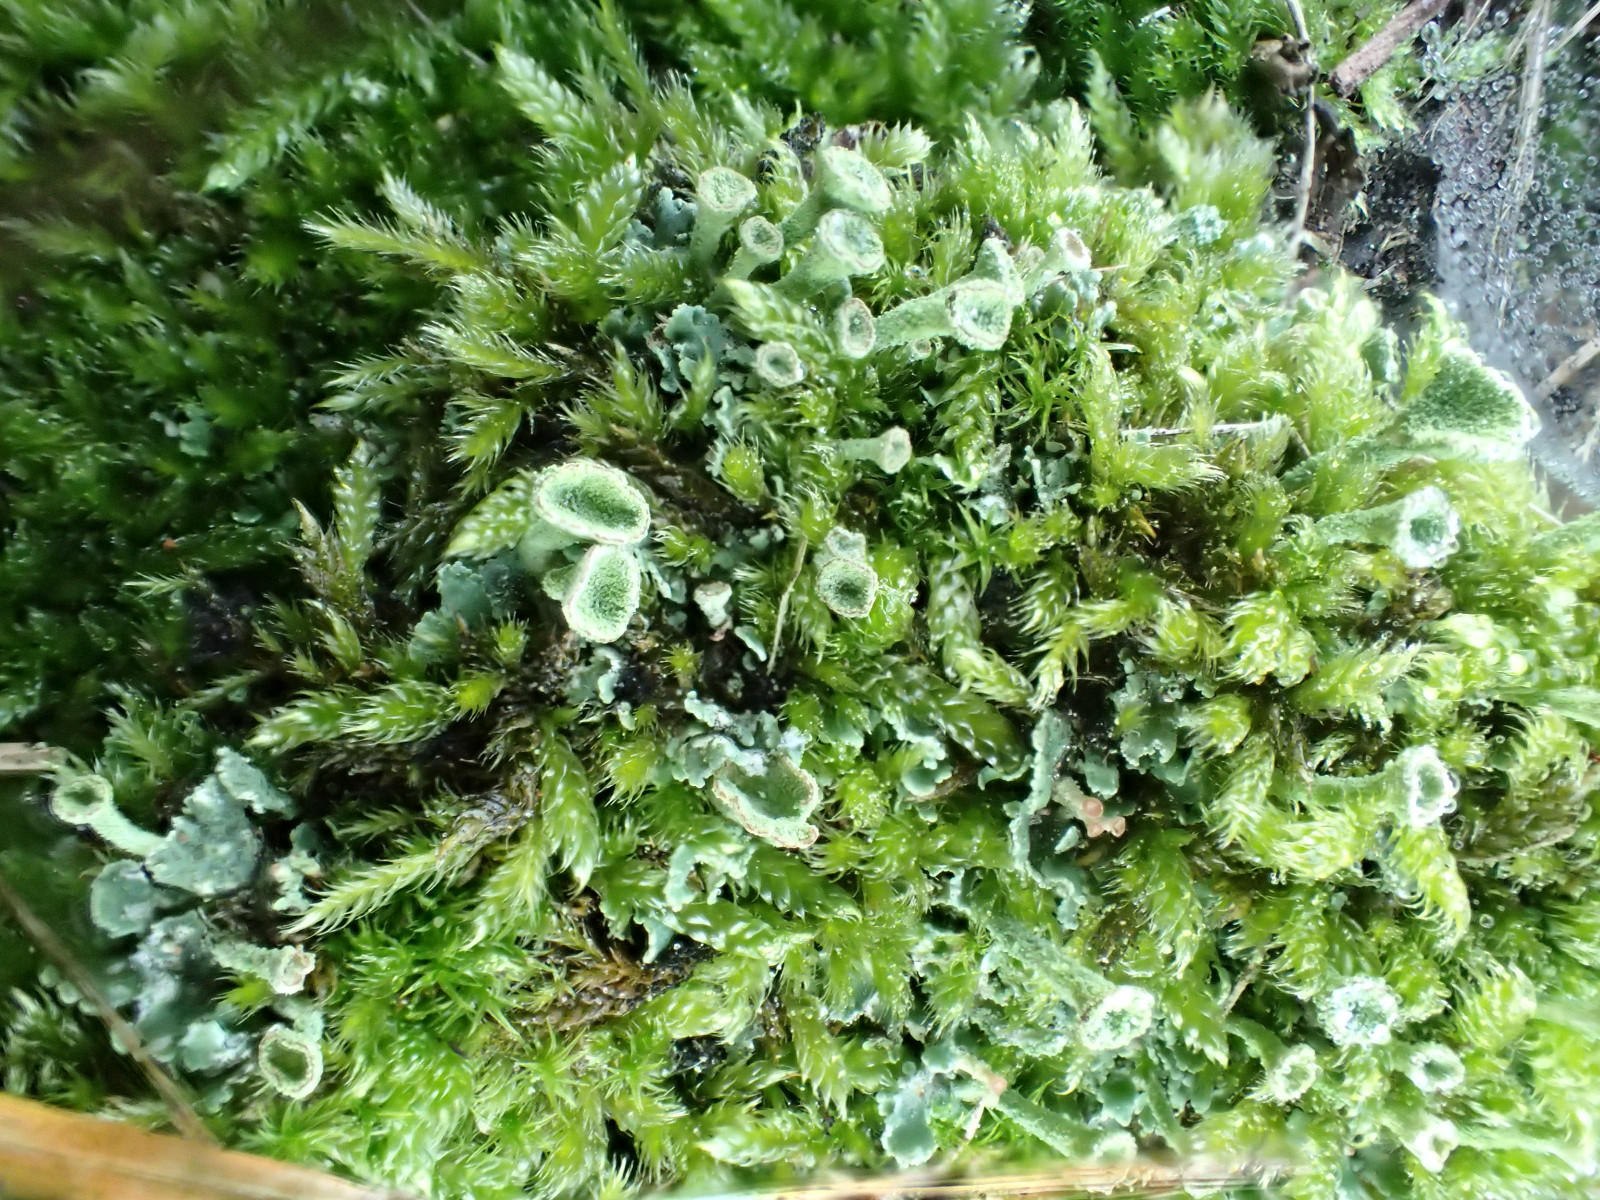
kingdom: Fungi
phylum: Ascomycota
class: Lecanoromycetes
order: Lecanorales
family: Cladoniaceae
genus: Cladonia
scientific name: Cladonia
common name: brungrøn bægerlav
